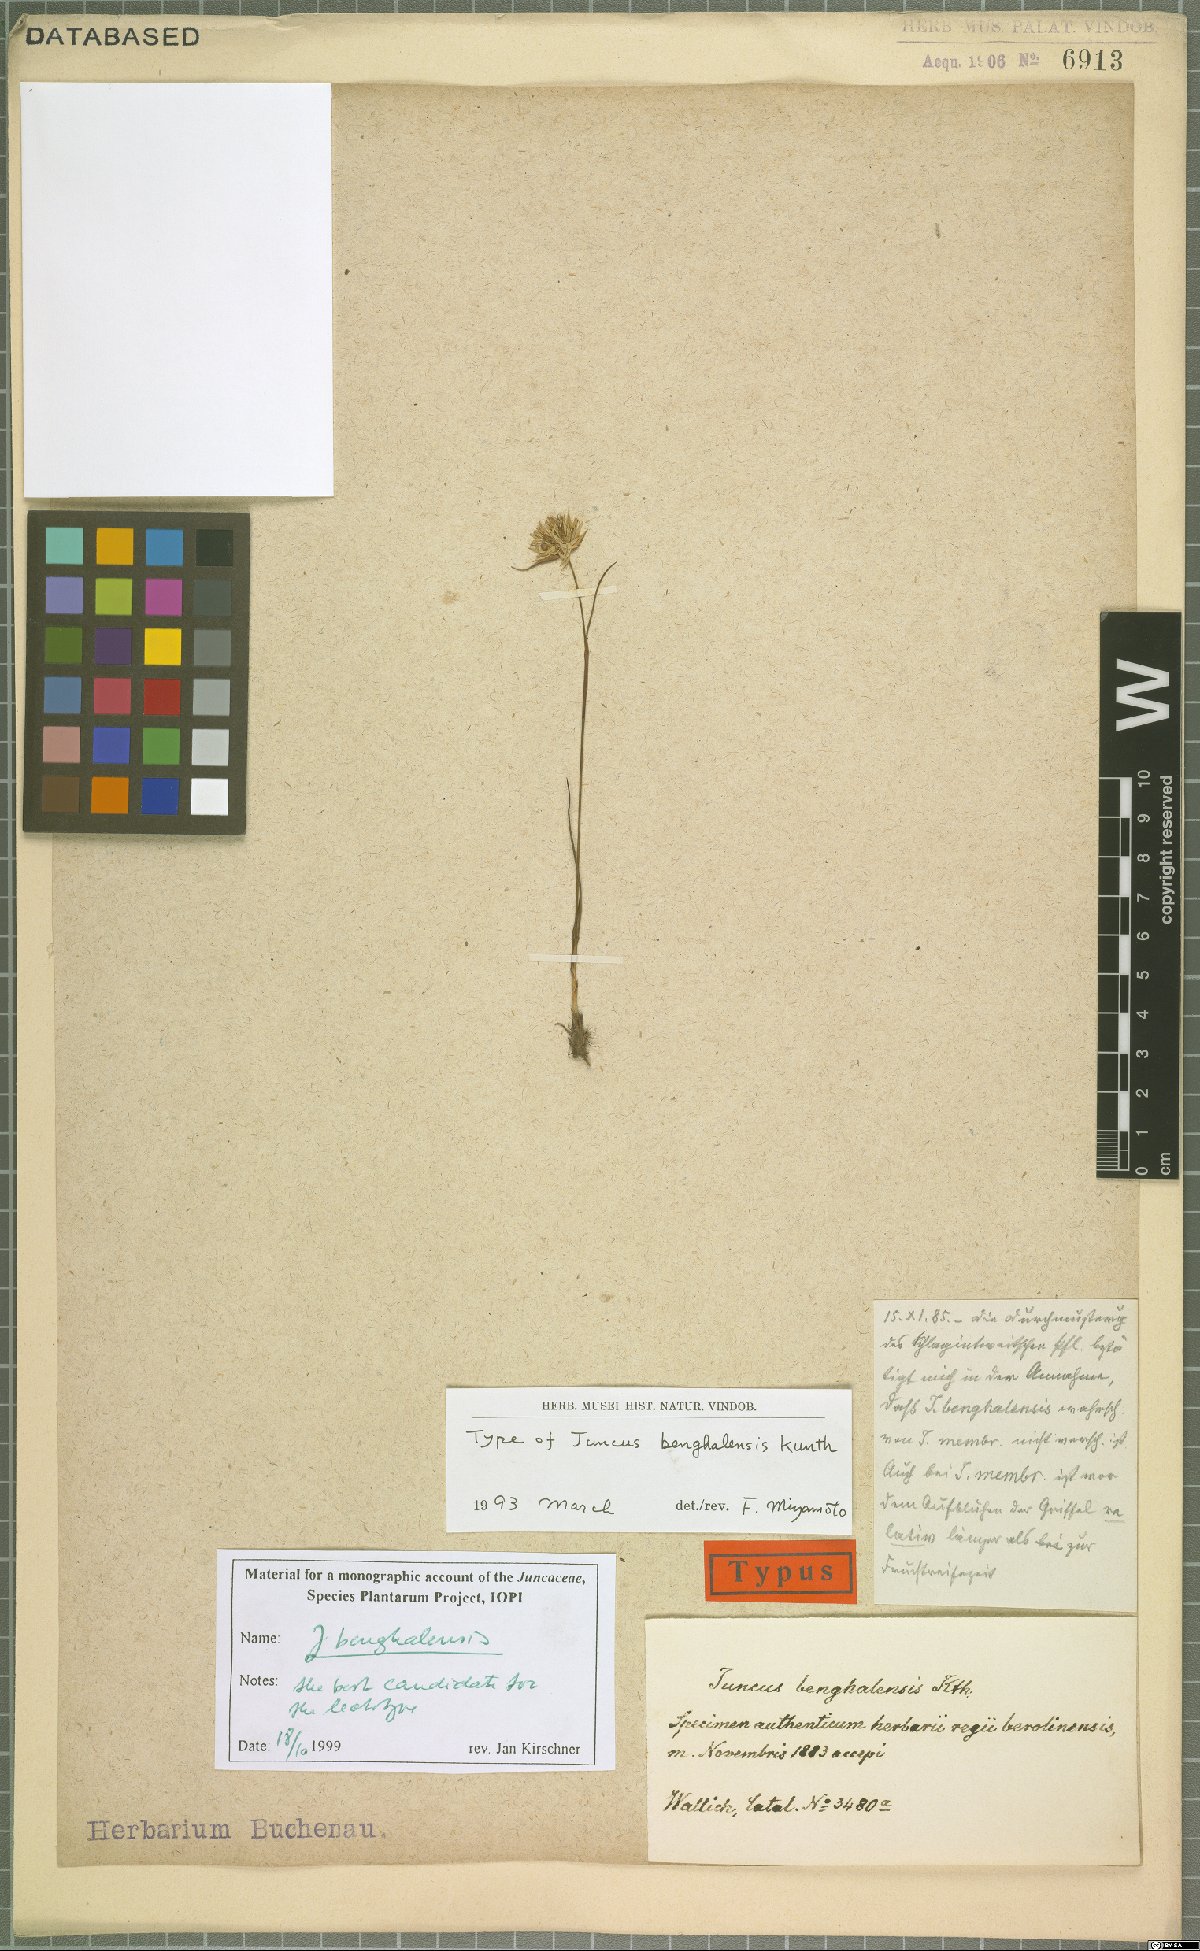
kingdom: Plantae
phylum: Tracheophyta
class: Liliopsida
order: Poales
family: Juncaceae
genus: Juncus
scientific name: Juncus benghalensis
